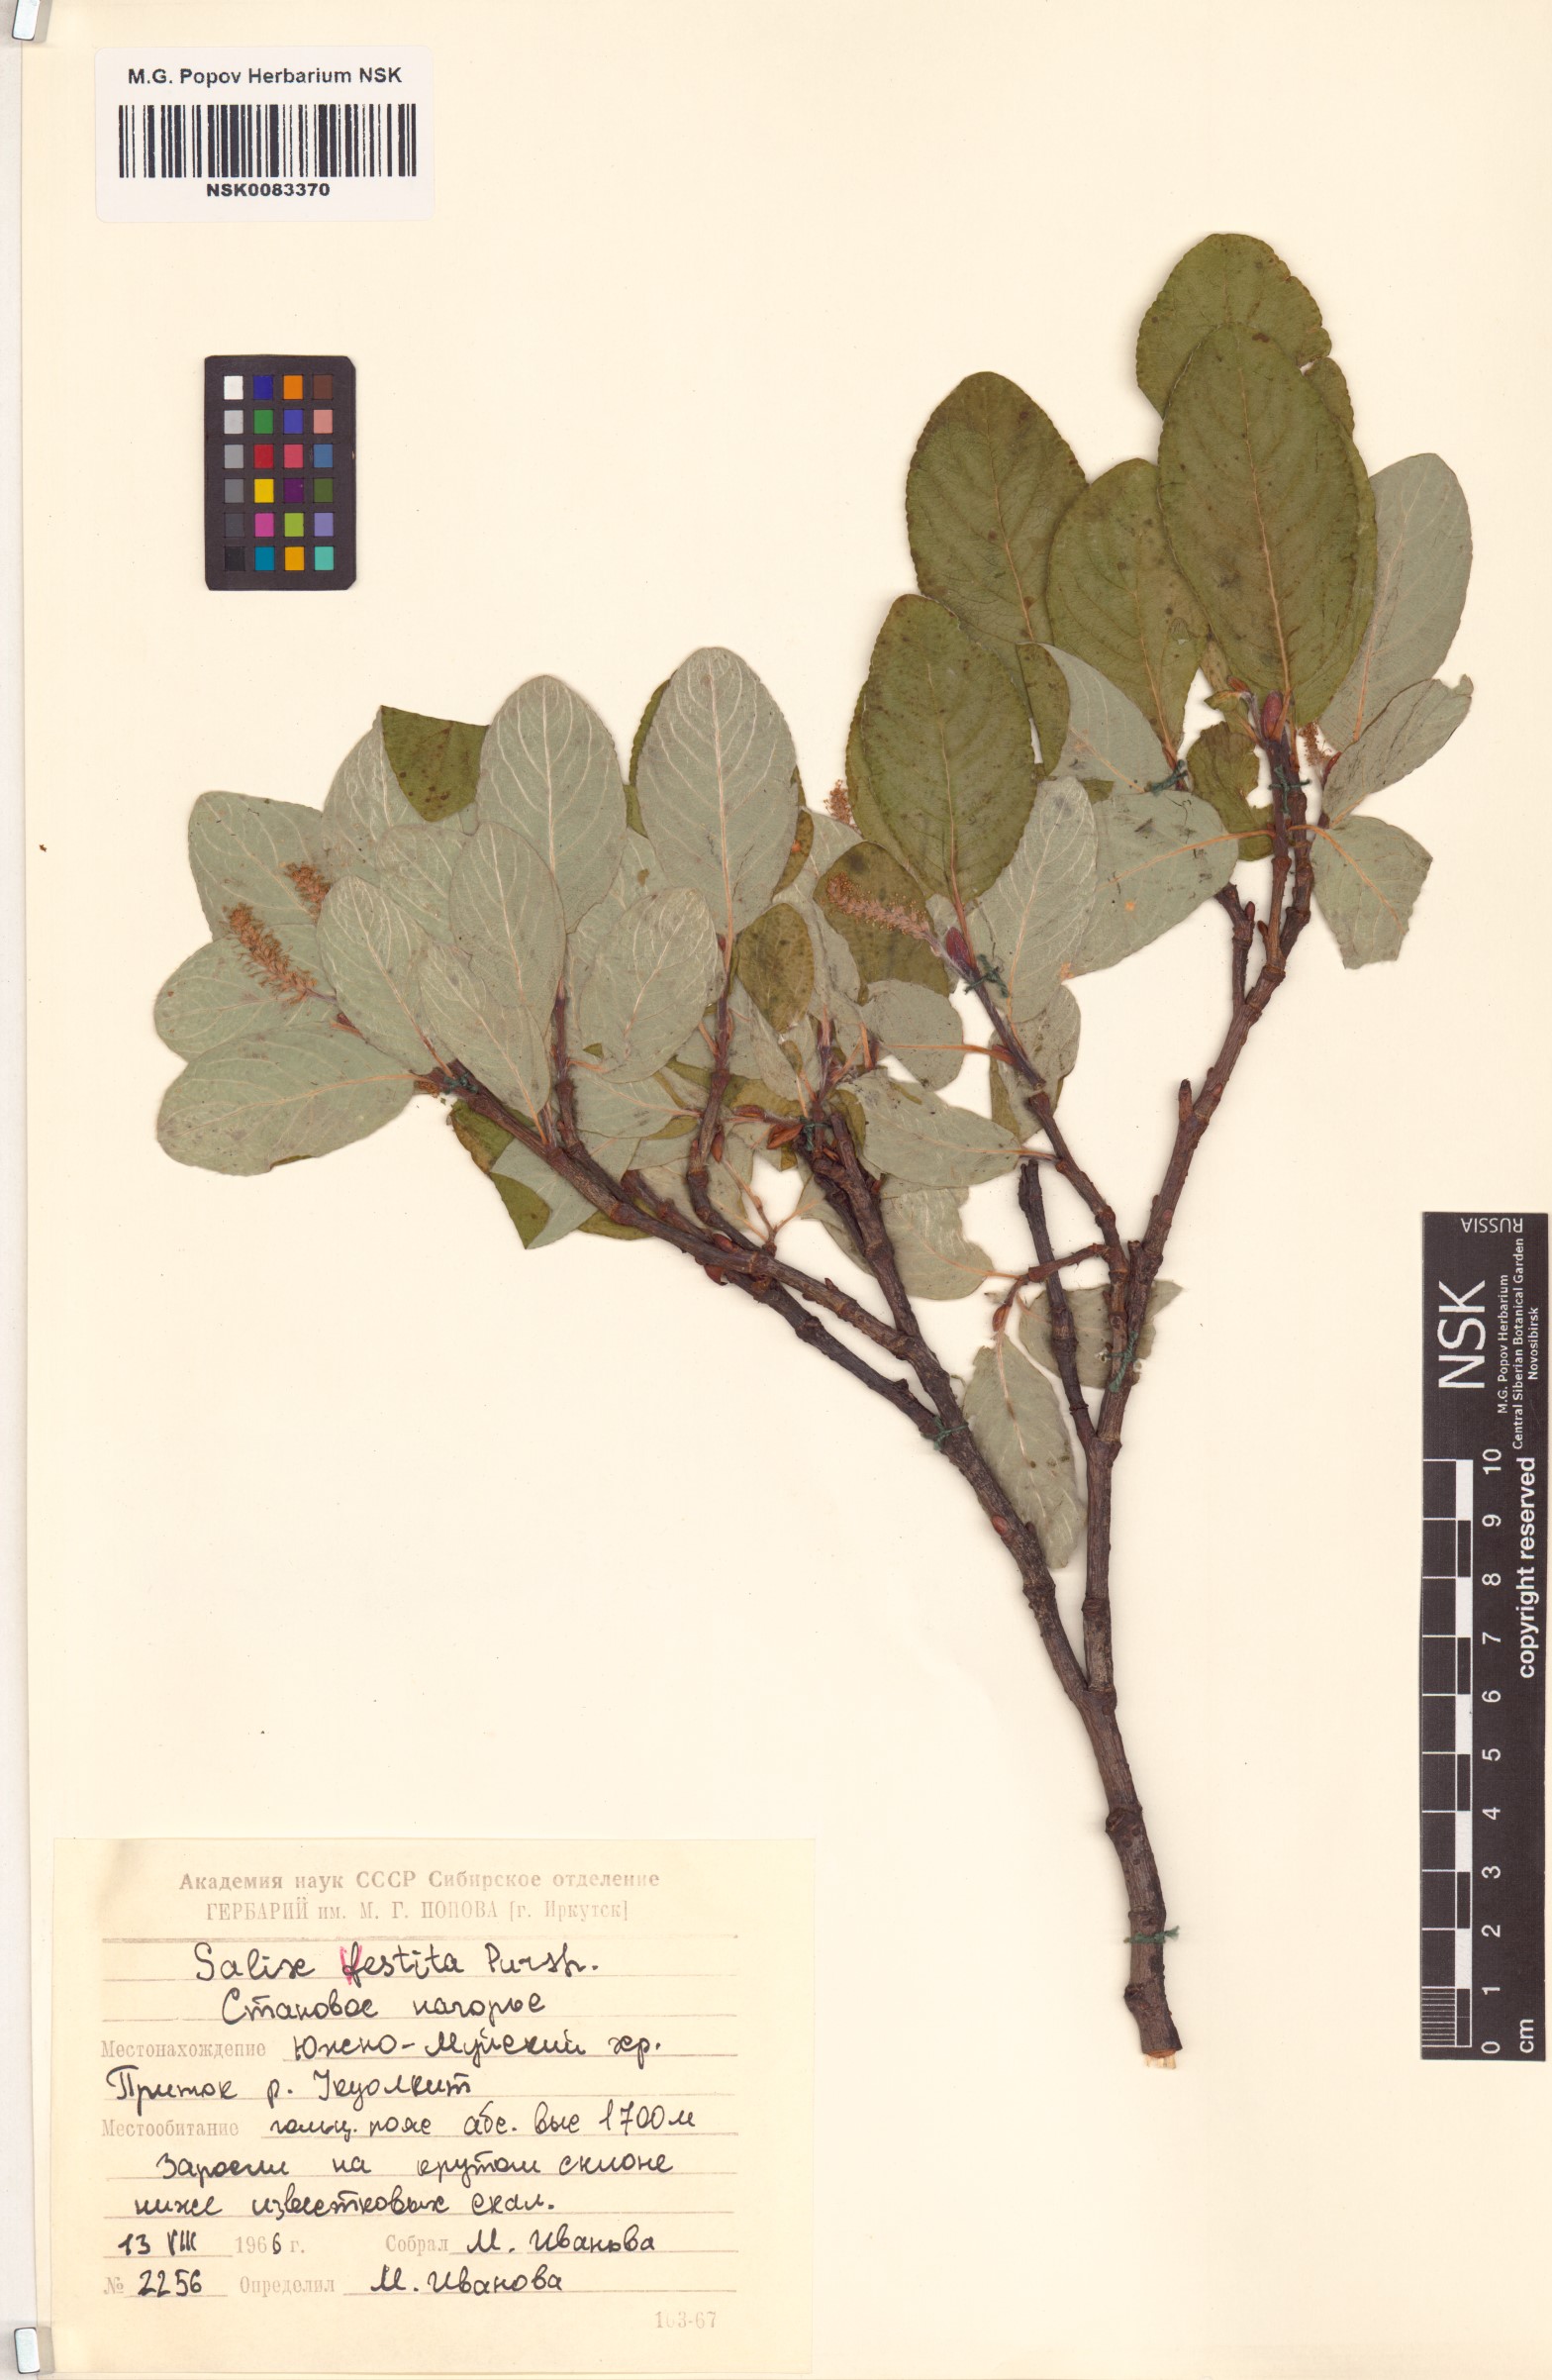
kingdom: Plantae
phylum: Tracheophyta
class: Magnoliopsida
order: Malpighiales
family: Salicaceae
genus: Salix
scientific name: Salix vestita
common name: Hairy willow
